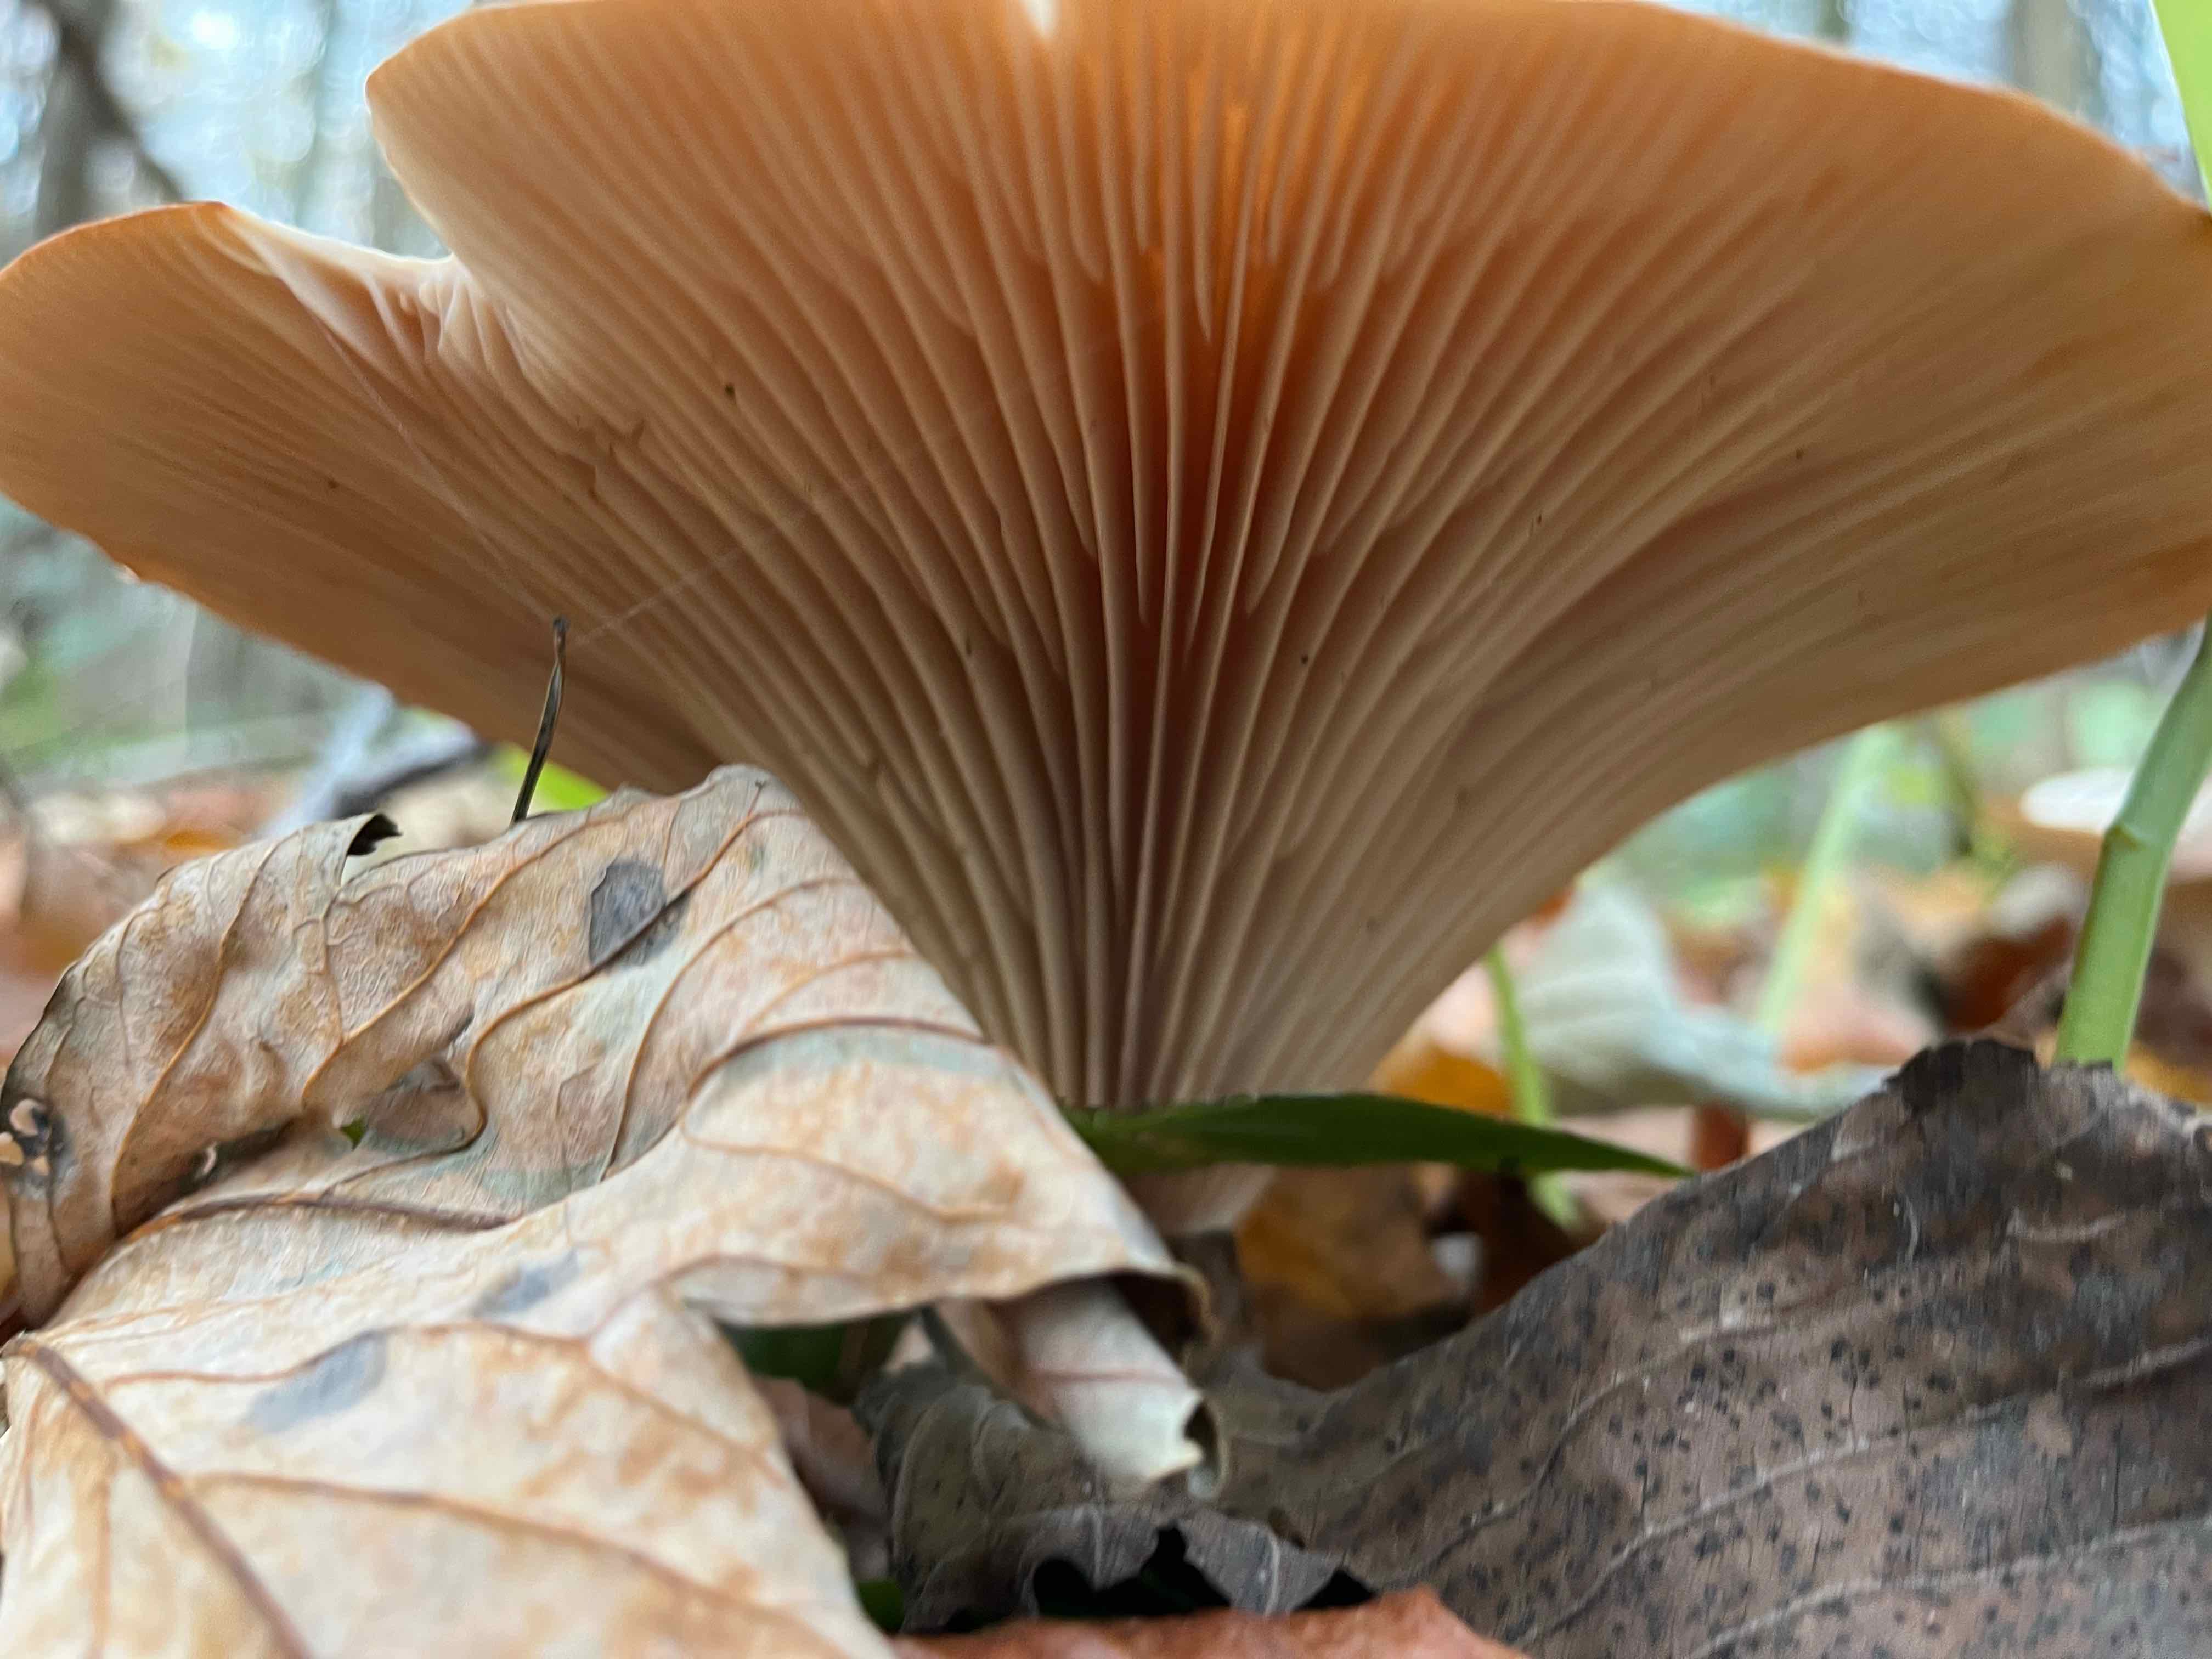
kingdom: Fungi
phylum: Basidiomycota
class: Agaricomycetes
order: Agaricales
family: Tricholomataceae
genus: Infundibulicybe
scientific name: Infundibulicybe geotropa
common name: stor tragthat
